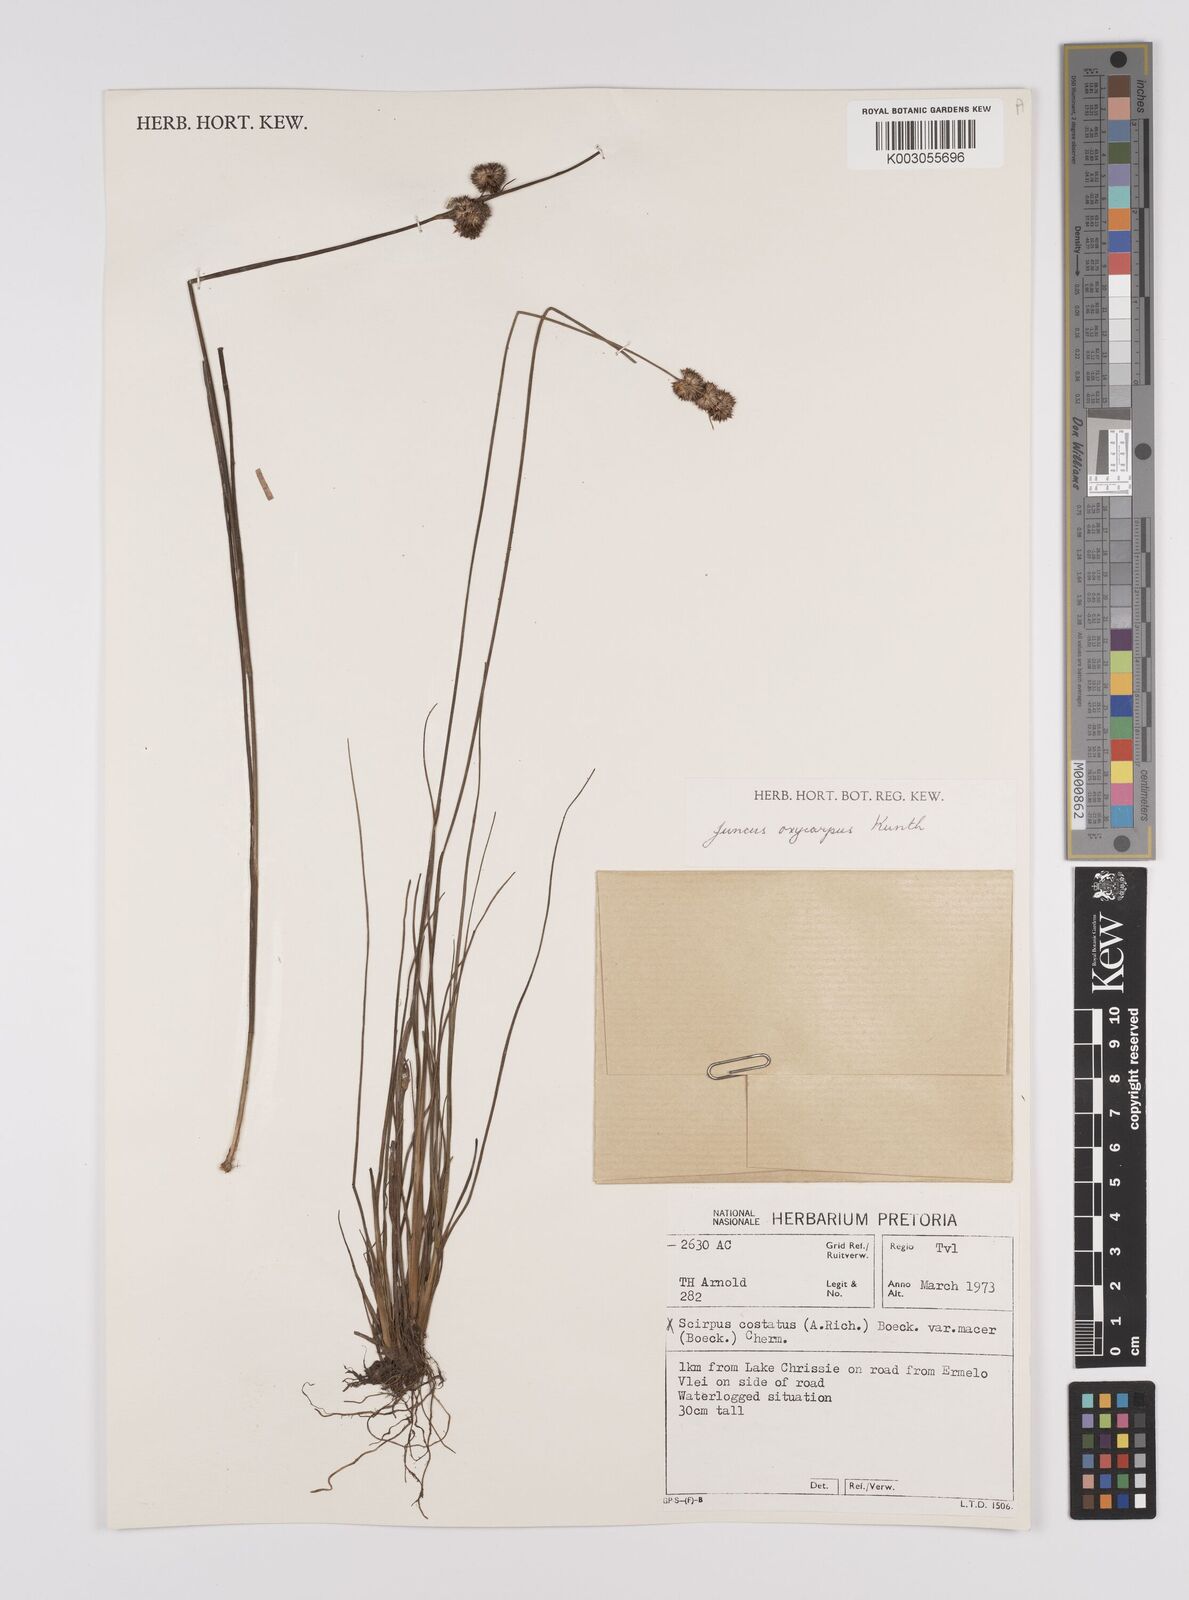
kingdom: Plantae
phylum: Tracheophyta
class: Liliopsida
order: Poales
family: Juncaceae
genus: Juncus
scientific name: Juncus oxycarpus
